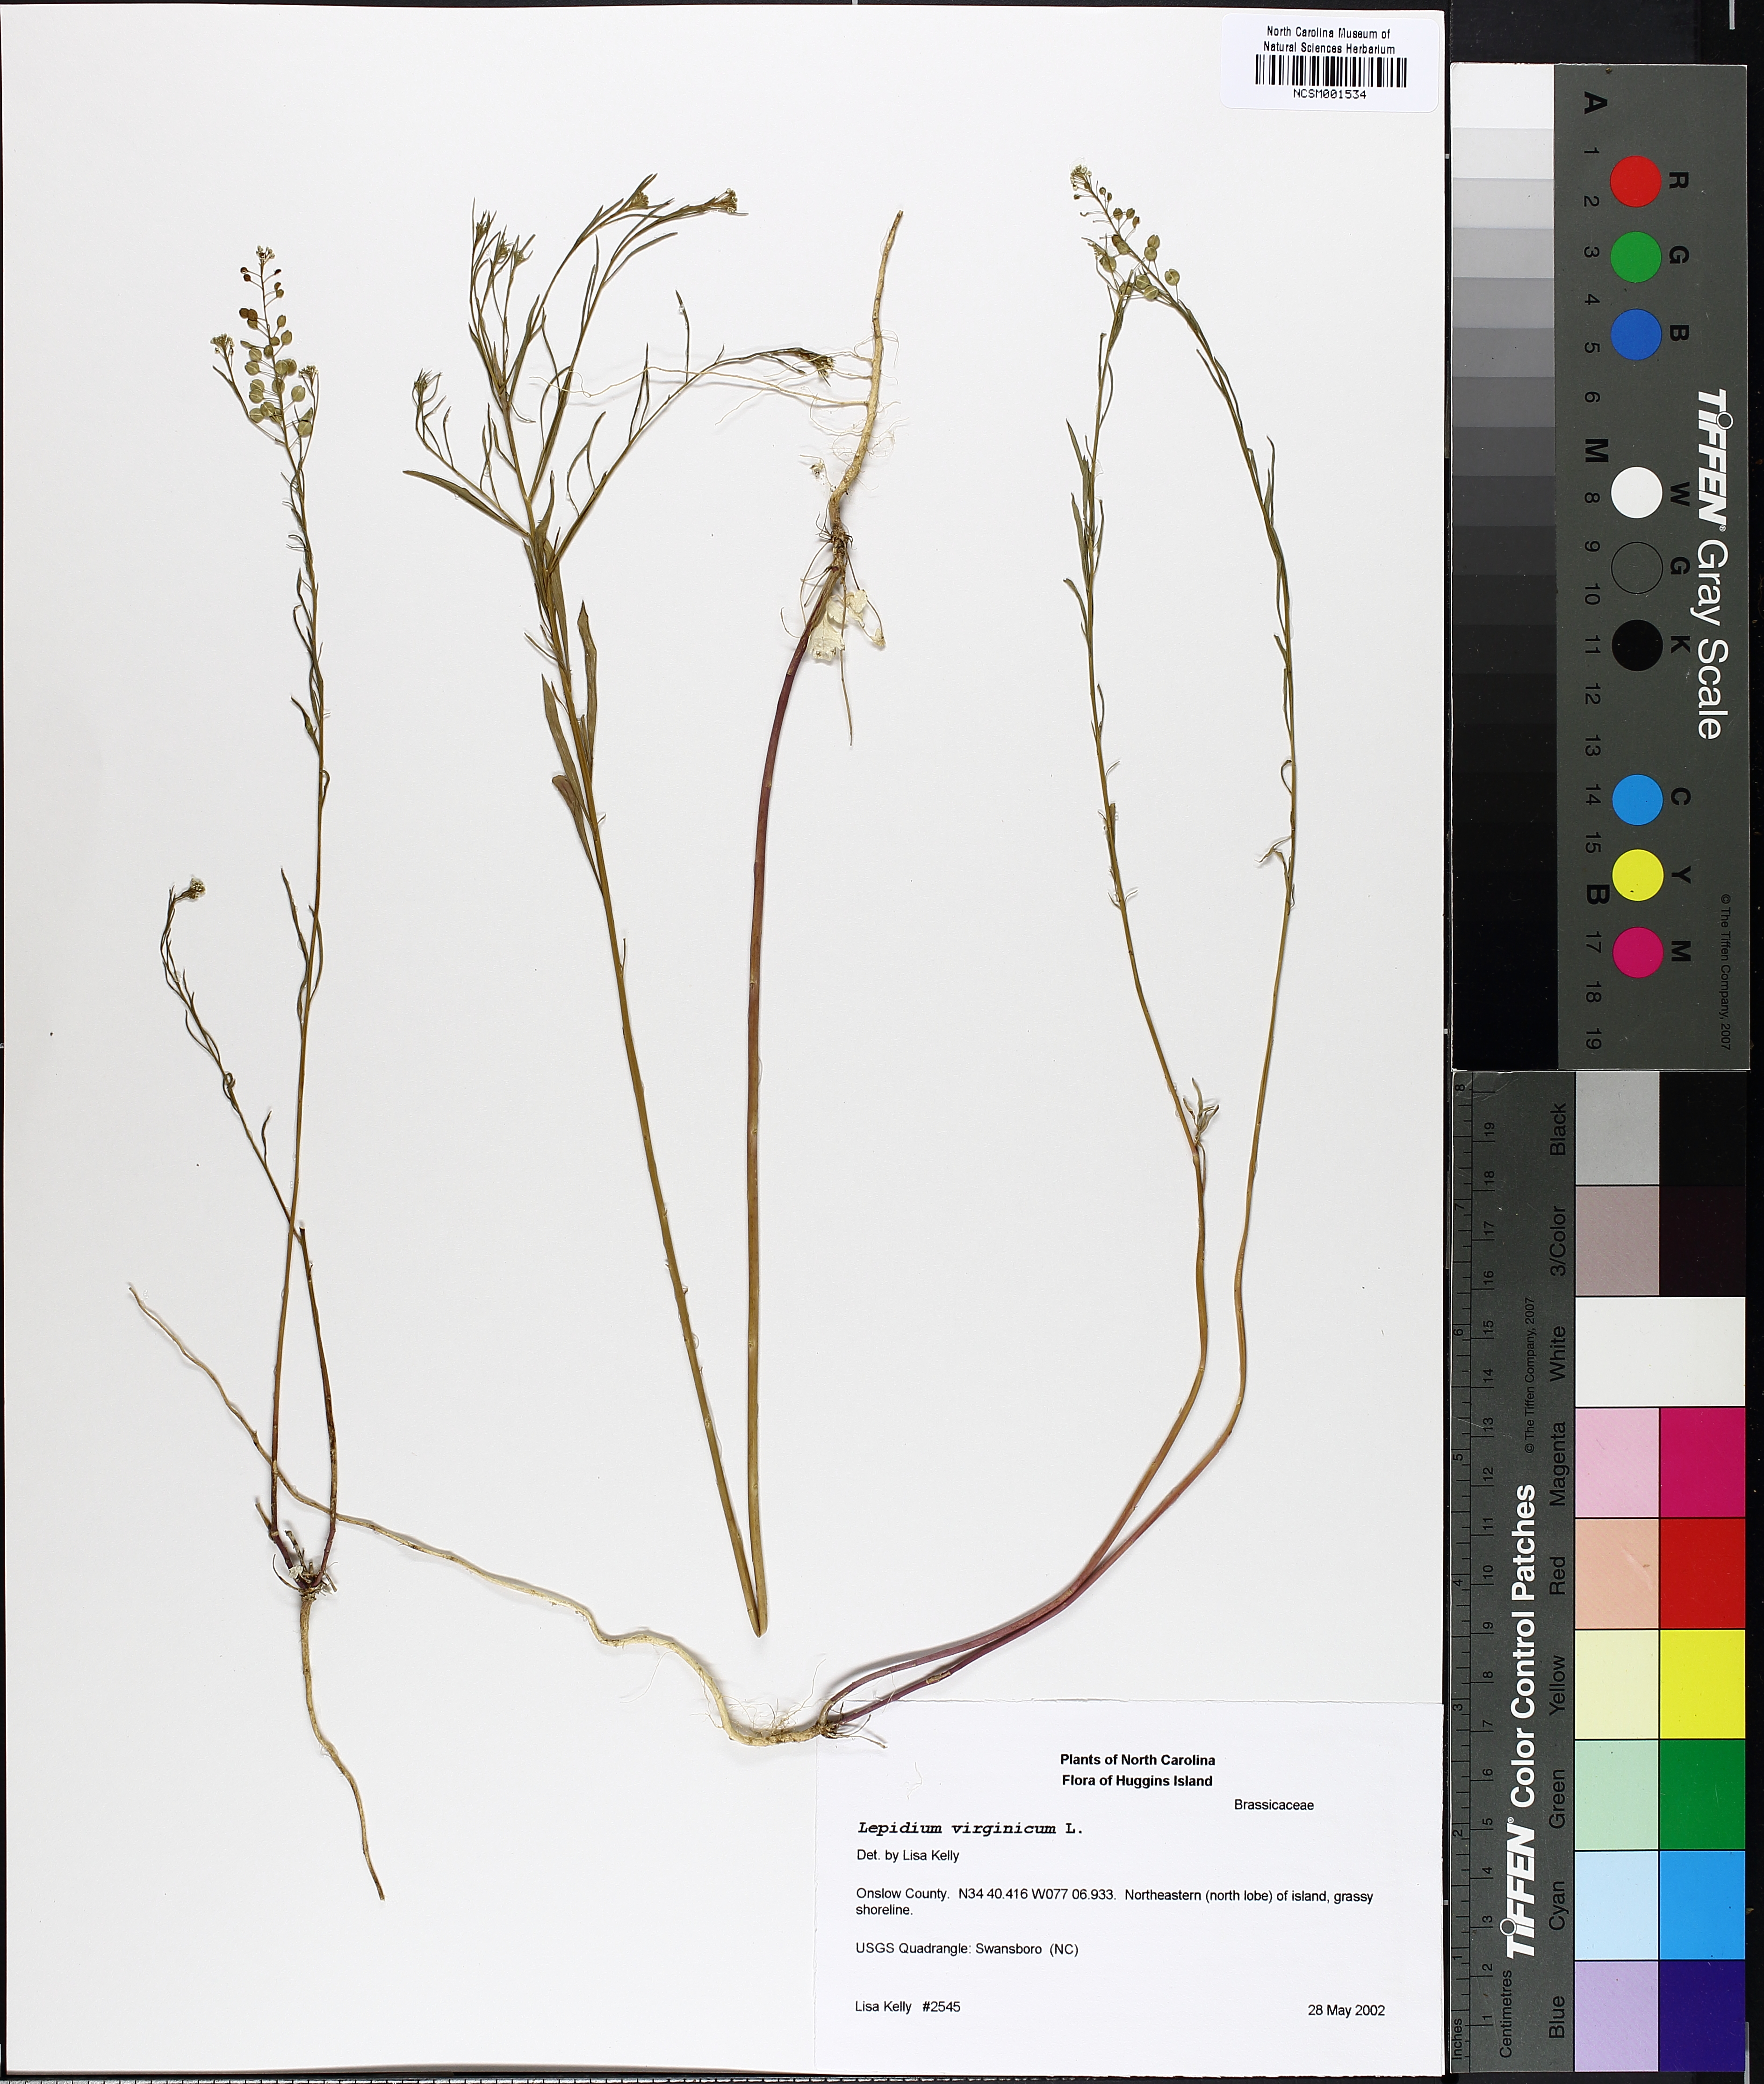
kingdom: Plantae
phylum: Tracheophyta
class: Magnoliopsida
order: Brassicales
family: Brassicaceae
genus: Lepidium
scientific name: Lepidium virginicum
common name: Least pepperwort
